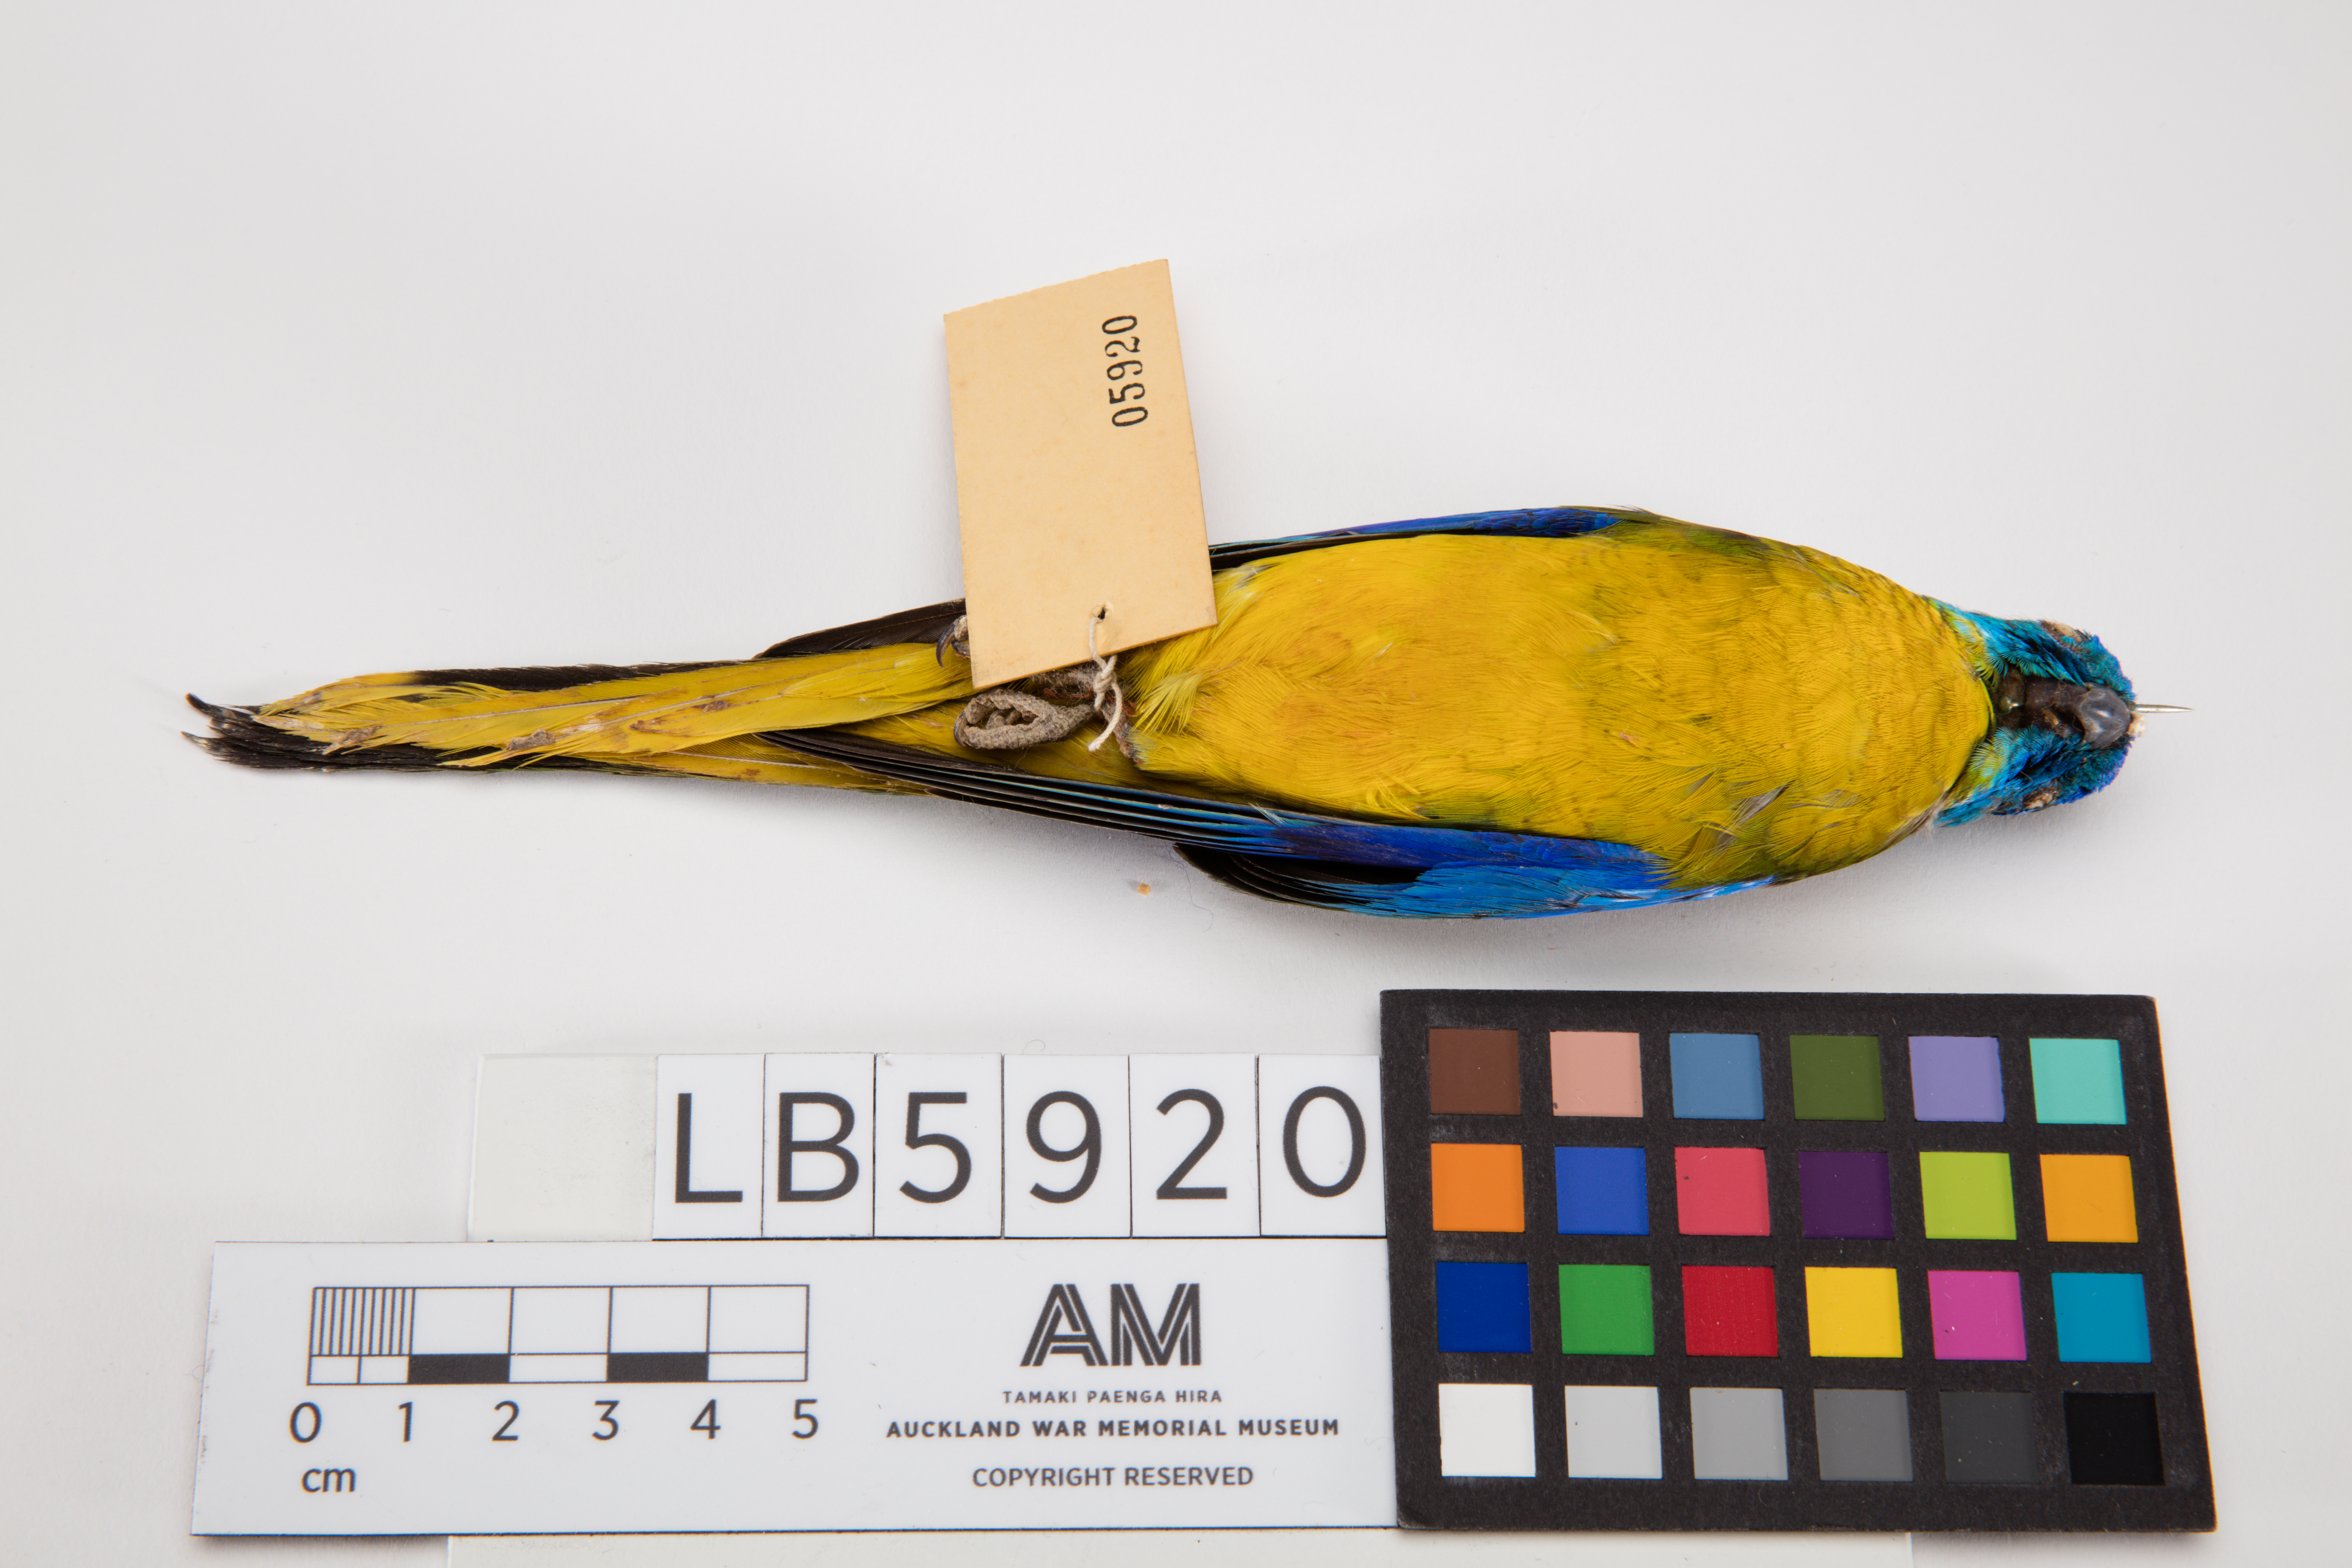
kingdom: Animalia
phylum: Chordata
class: Aves
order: Psittaciformes
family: Psittacidae
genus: Neophema
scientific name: Neophema pulchella
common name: Turquoise parrot
